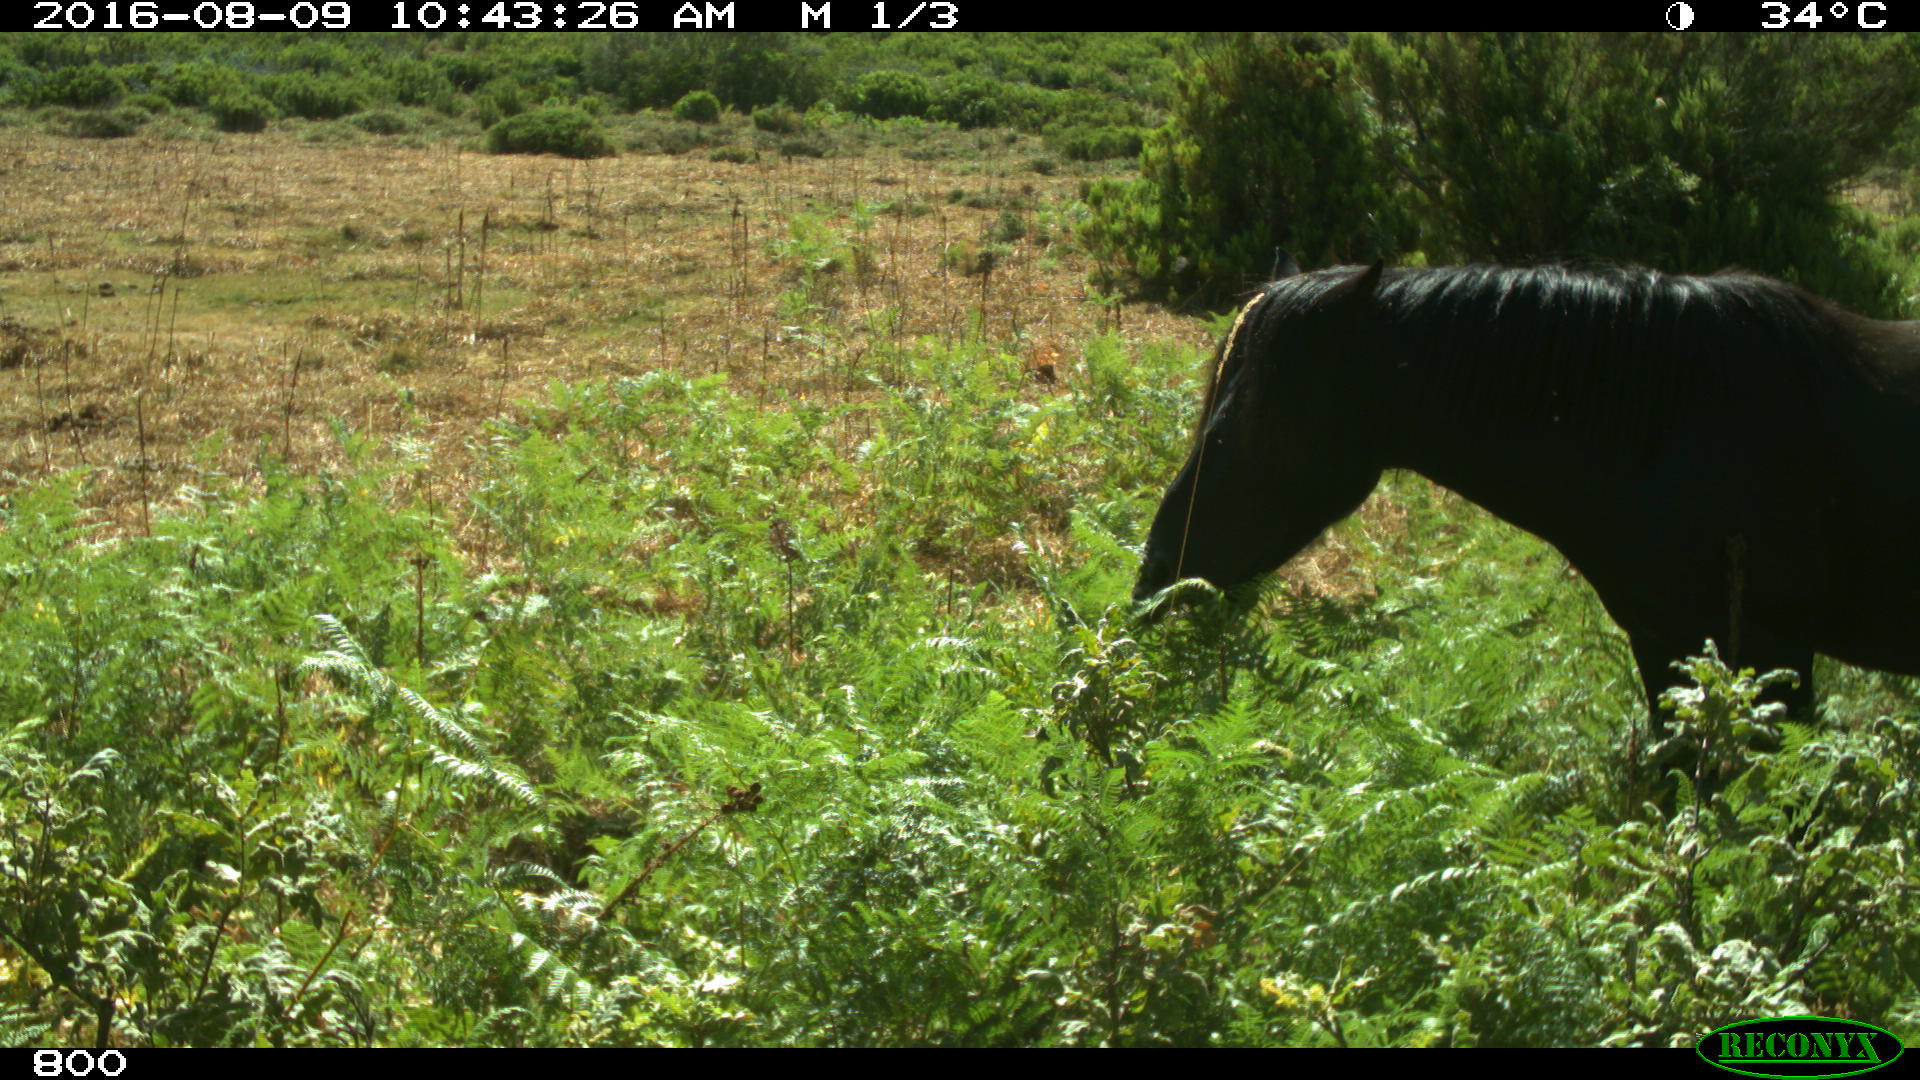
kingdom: Animalia
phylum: Chordata
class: Mammalia
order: Perissodactyla
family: Equidae
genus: Equus
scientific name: Equus caballus
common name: Horse
